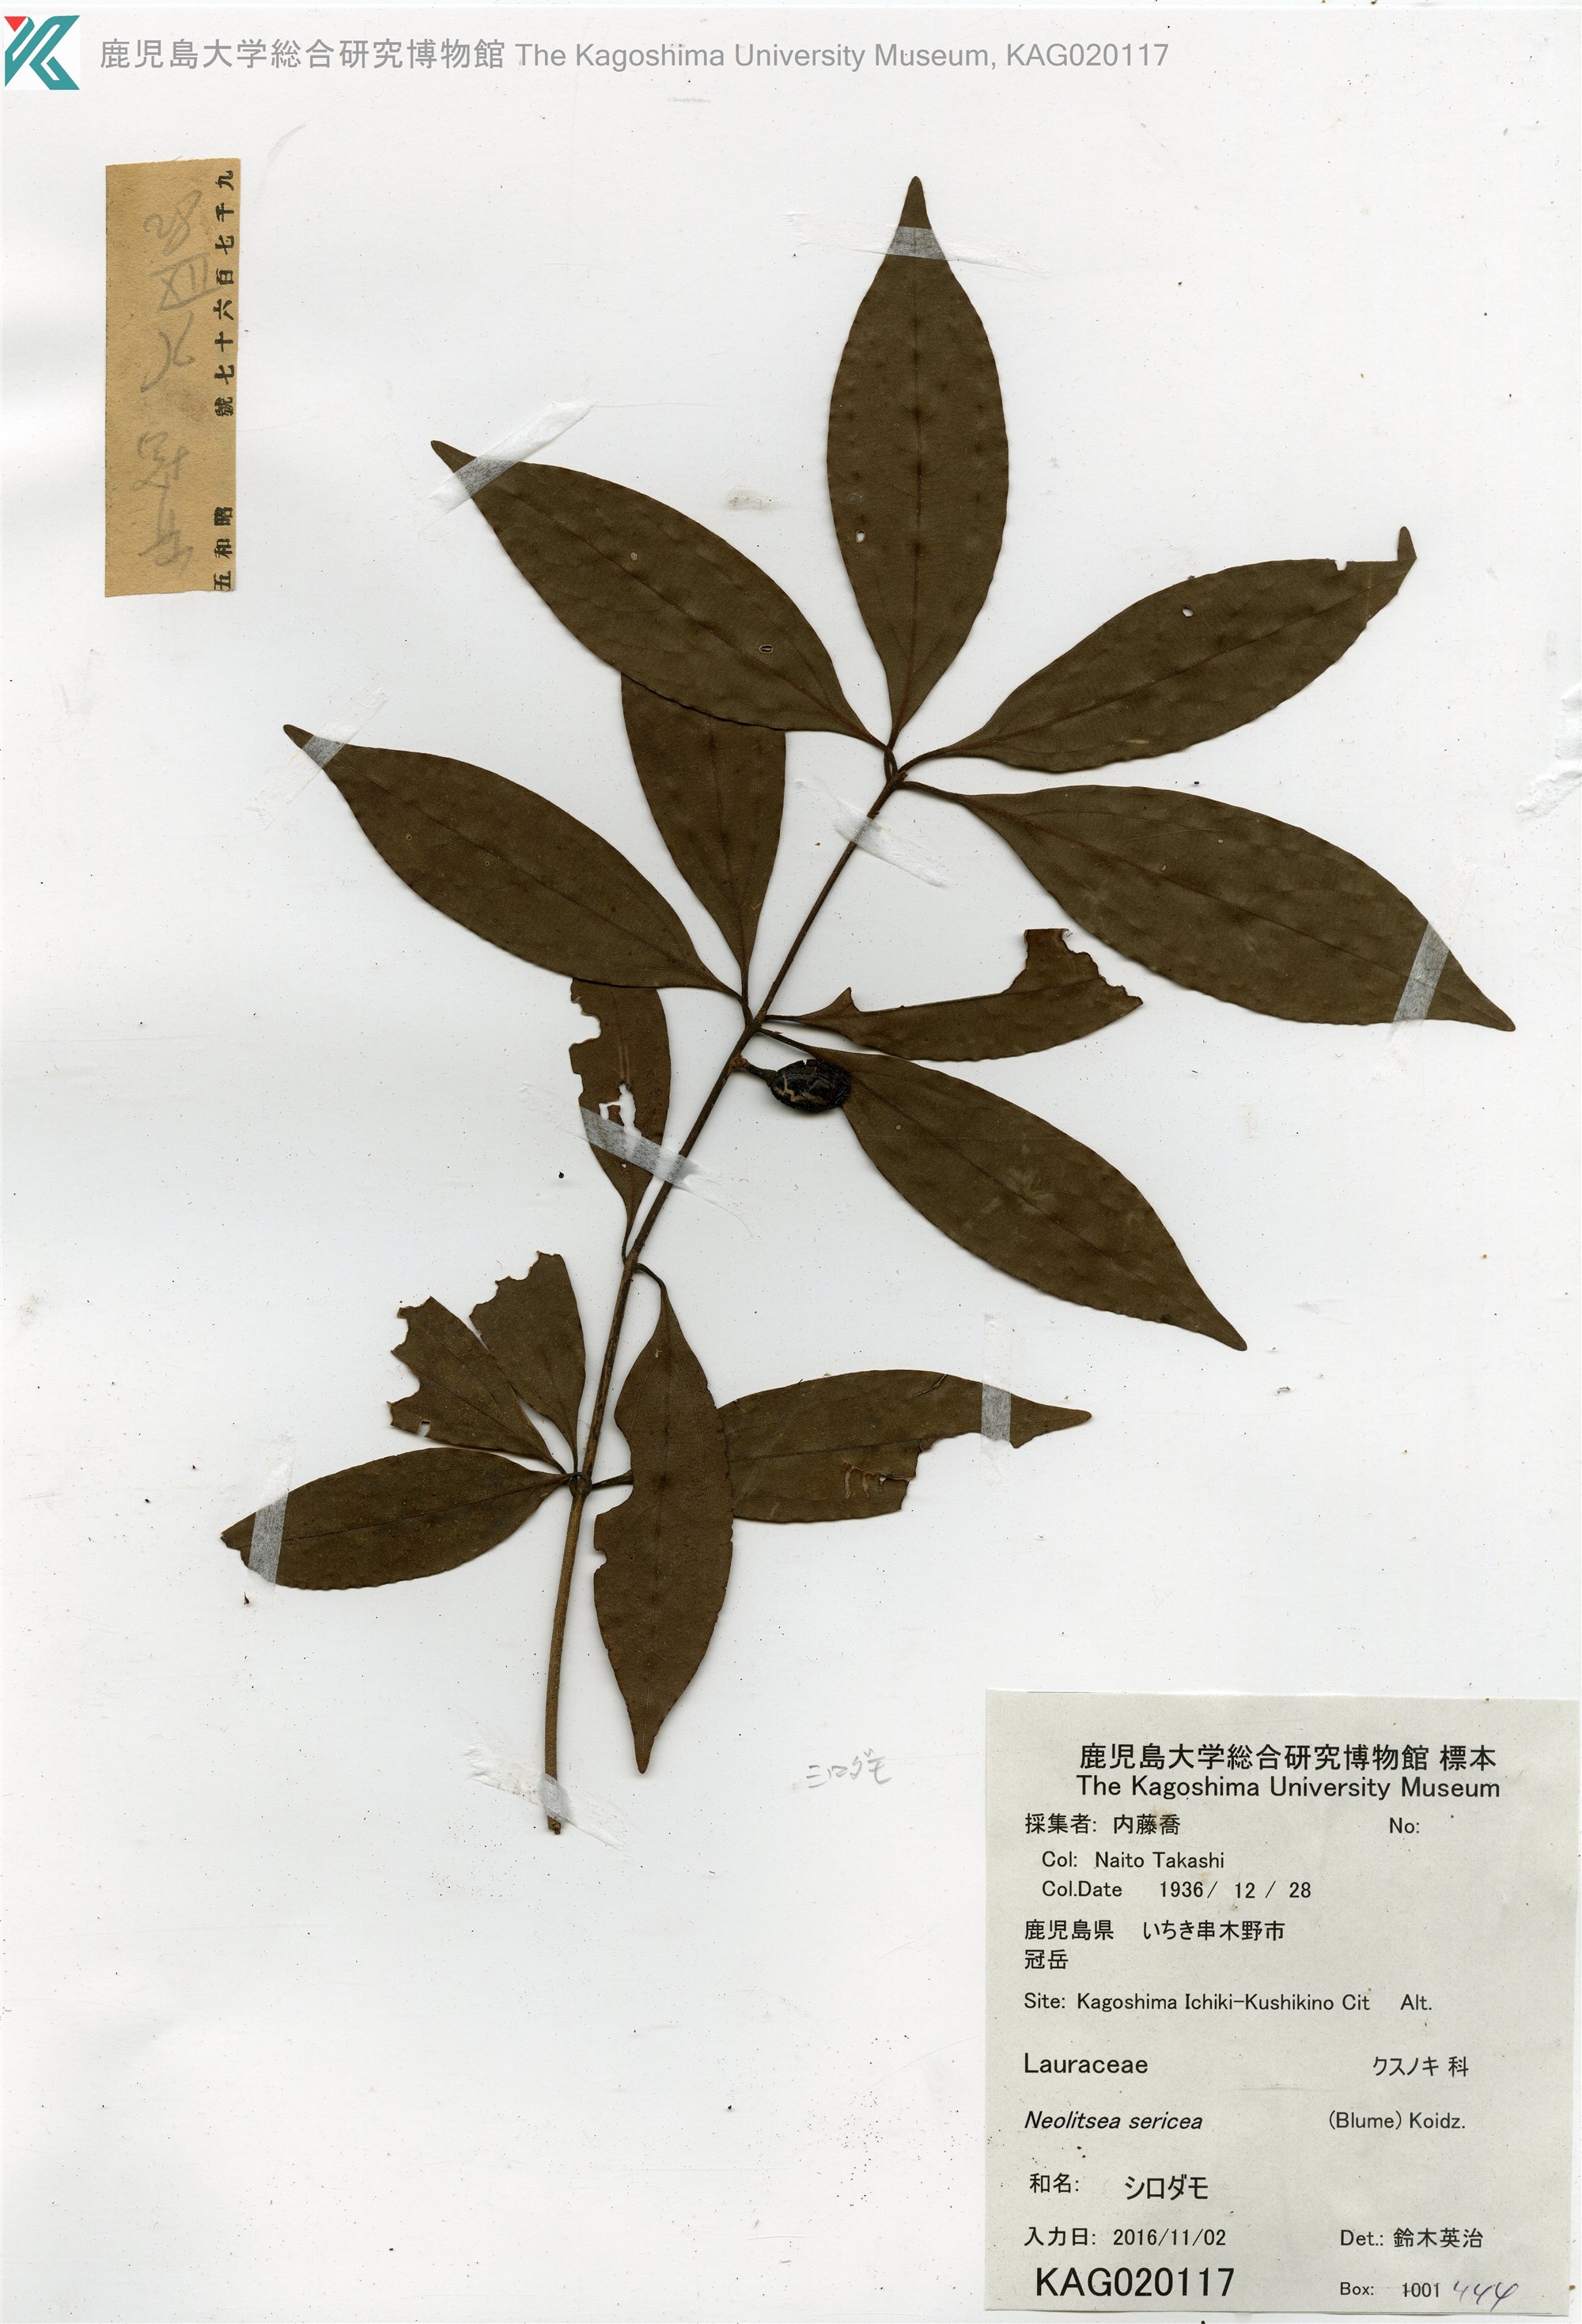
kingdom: Plantae
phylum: Tracheophyta
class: Magnoliopsida
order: Laurales
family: Lauraceae
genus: Neolitsea
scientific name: Neolitsea sericea
